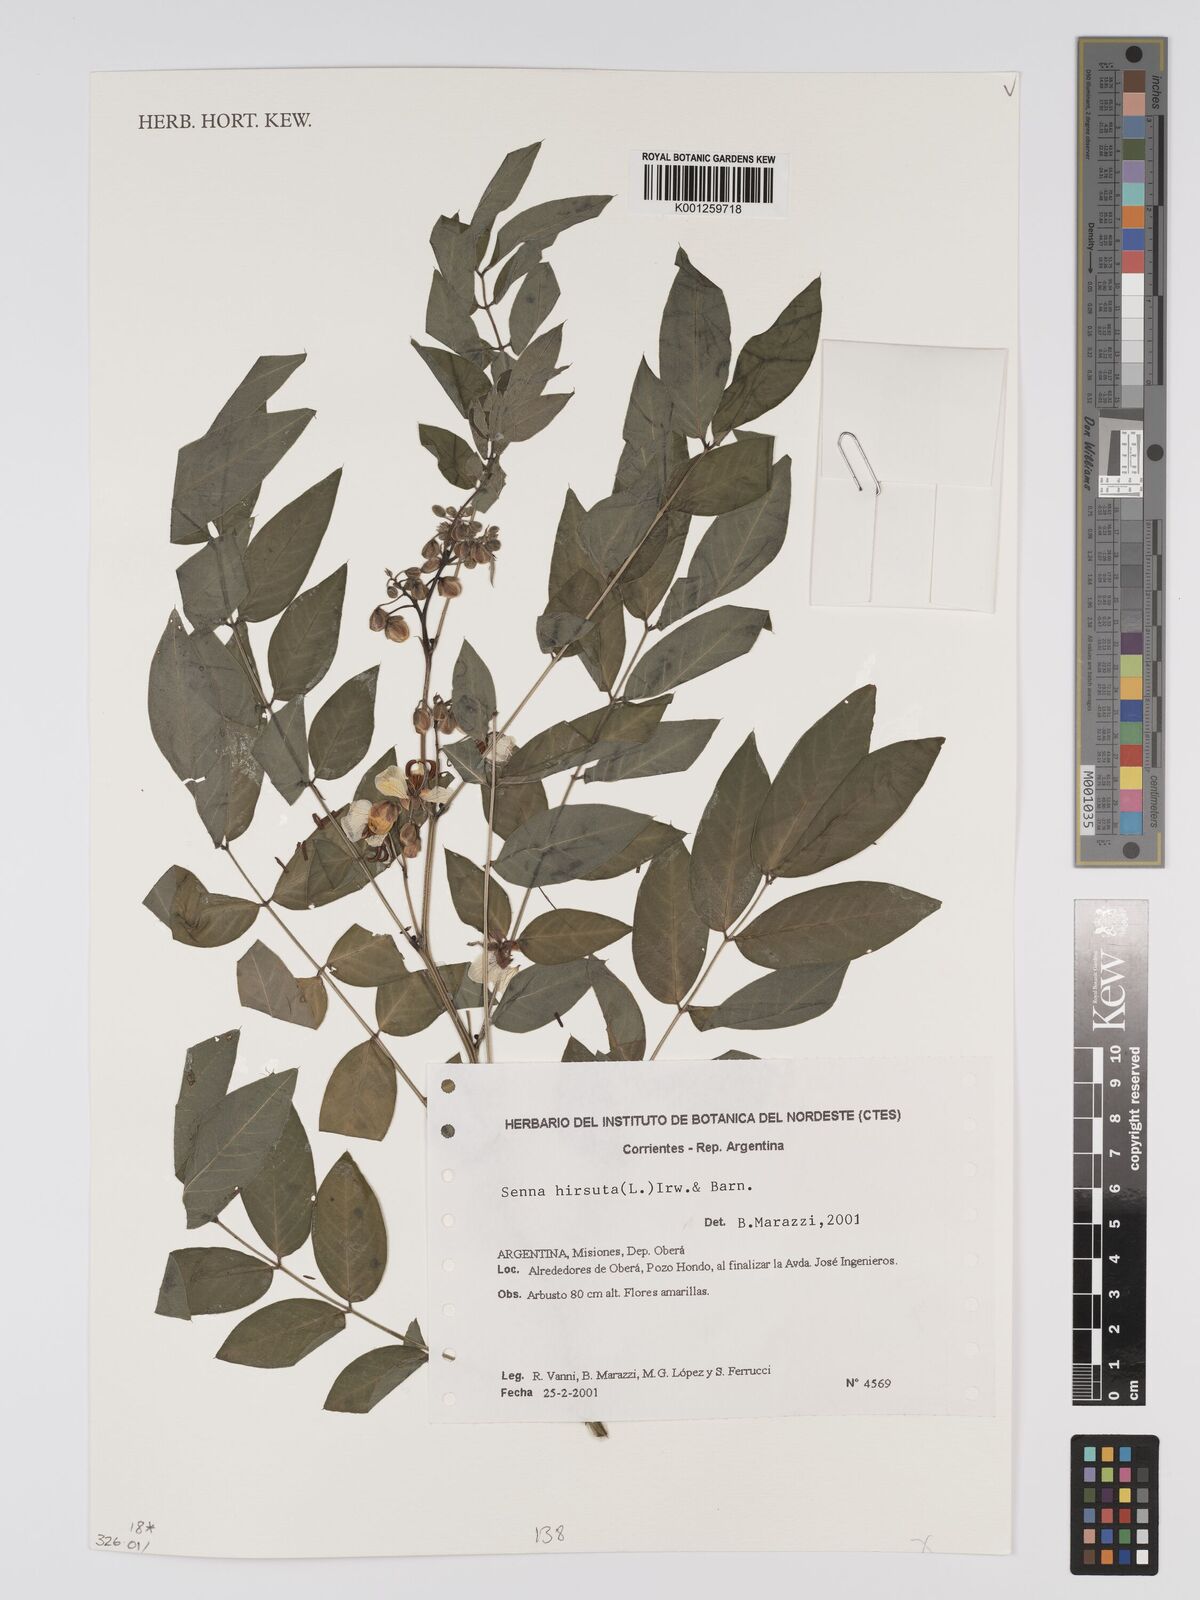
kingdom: Plantae
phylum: Tracheophyta
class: Magnoliopsida
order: Fabales
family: Fabaceae
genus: Senna
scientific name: Senna hirsuta
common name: Woolly senna
